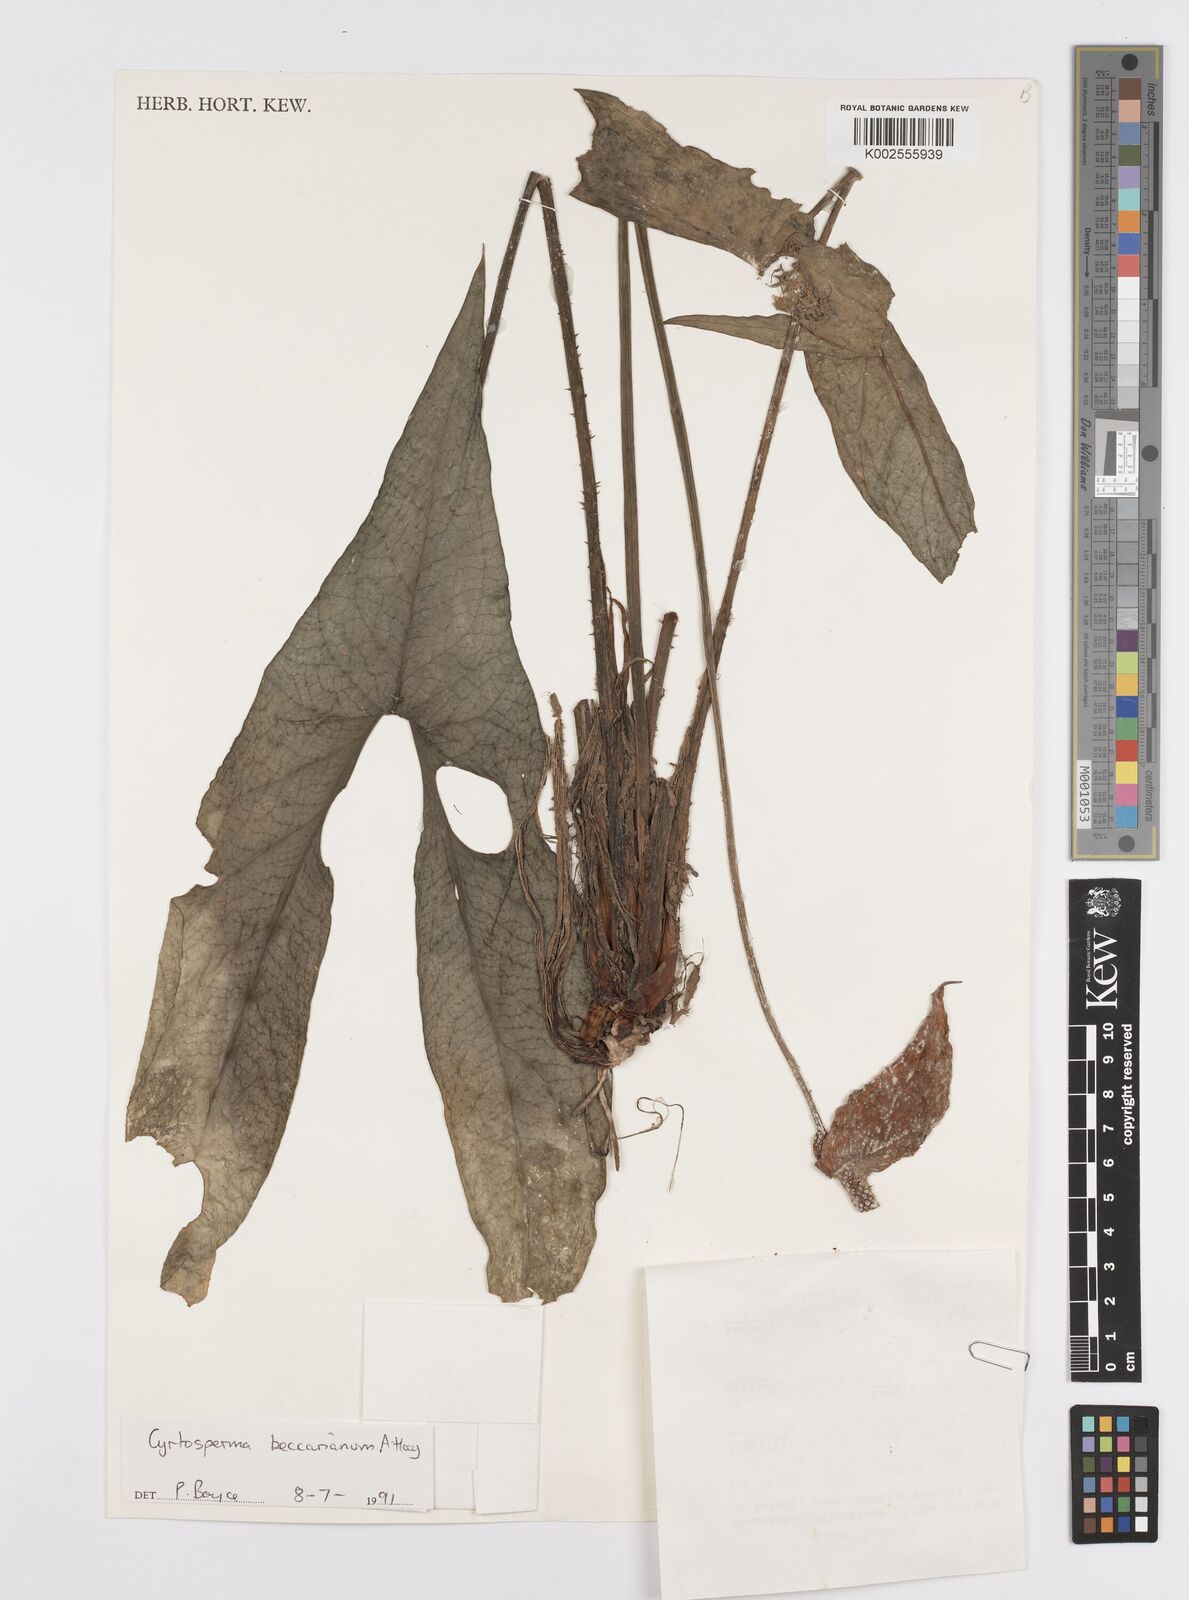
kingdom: Plantae
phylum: Tracheophyta
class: Liliopsida
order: Alismatales
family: Araceae
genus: Cyrtosperma
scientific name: Cyrtosperma beccarianum
